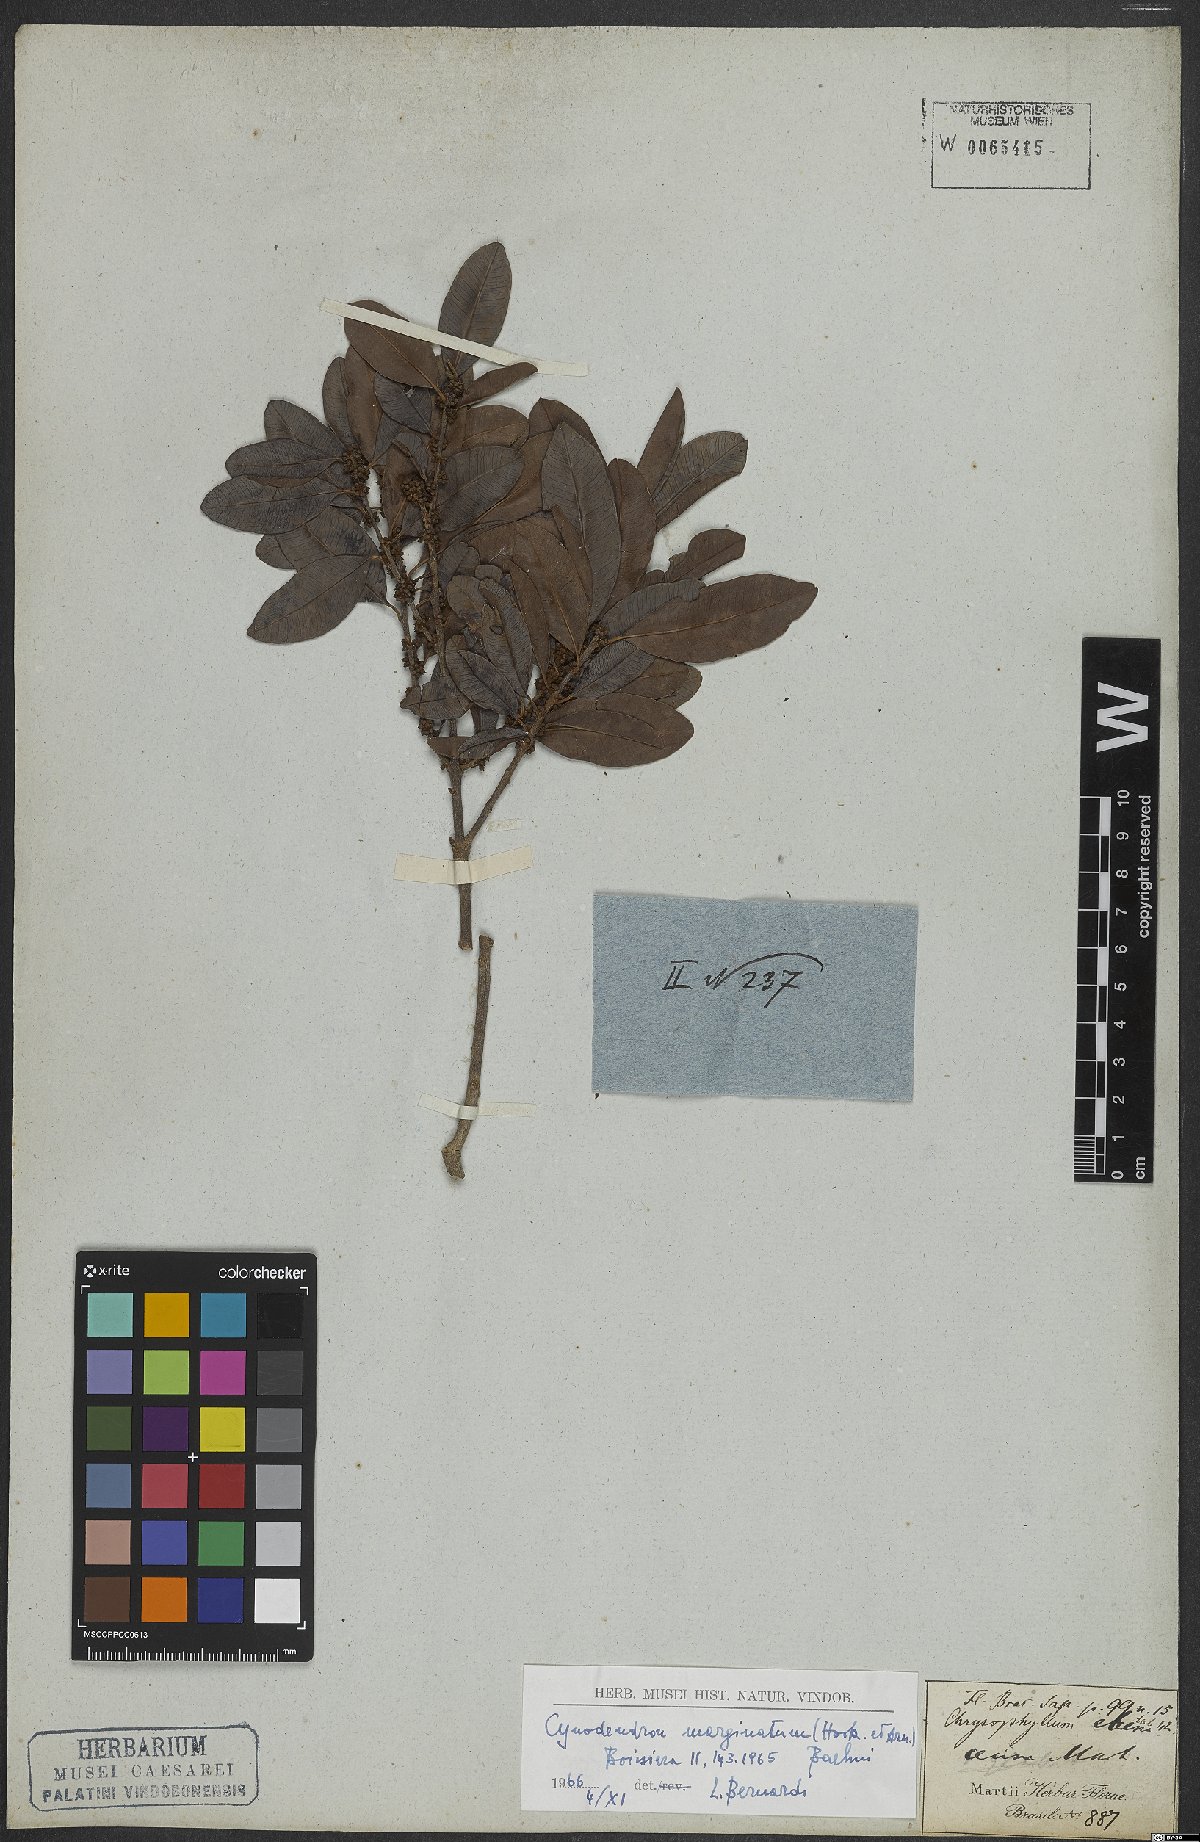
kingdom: Plantae
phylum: Tracheophyta
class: Magnoliopsida
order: Ericales
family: Sapotaceae
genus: Chrysophyllum
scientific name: Chrysophyllum marginatum
